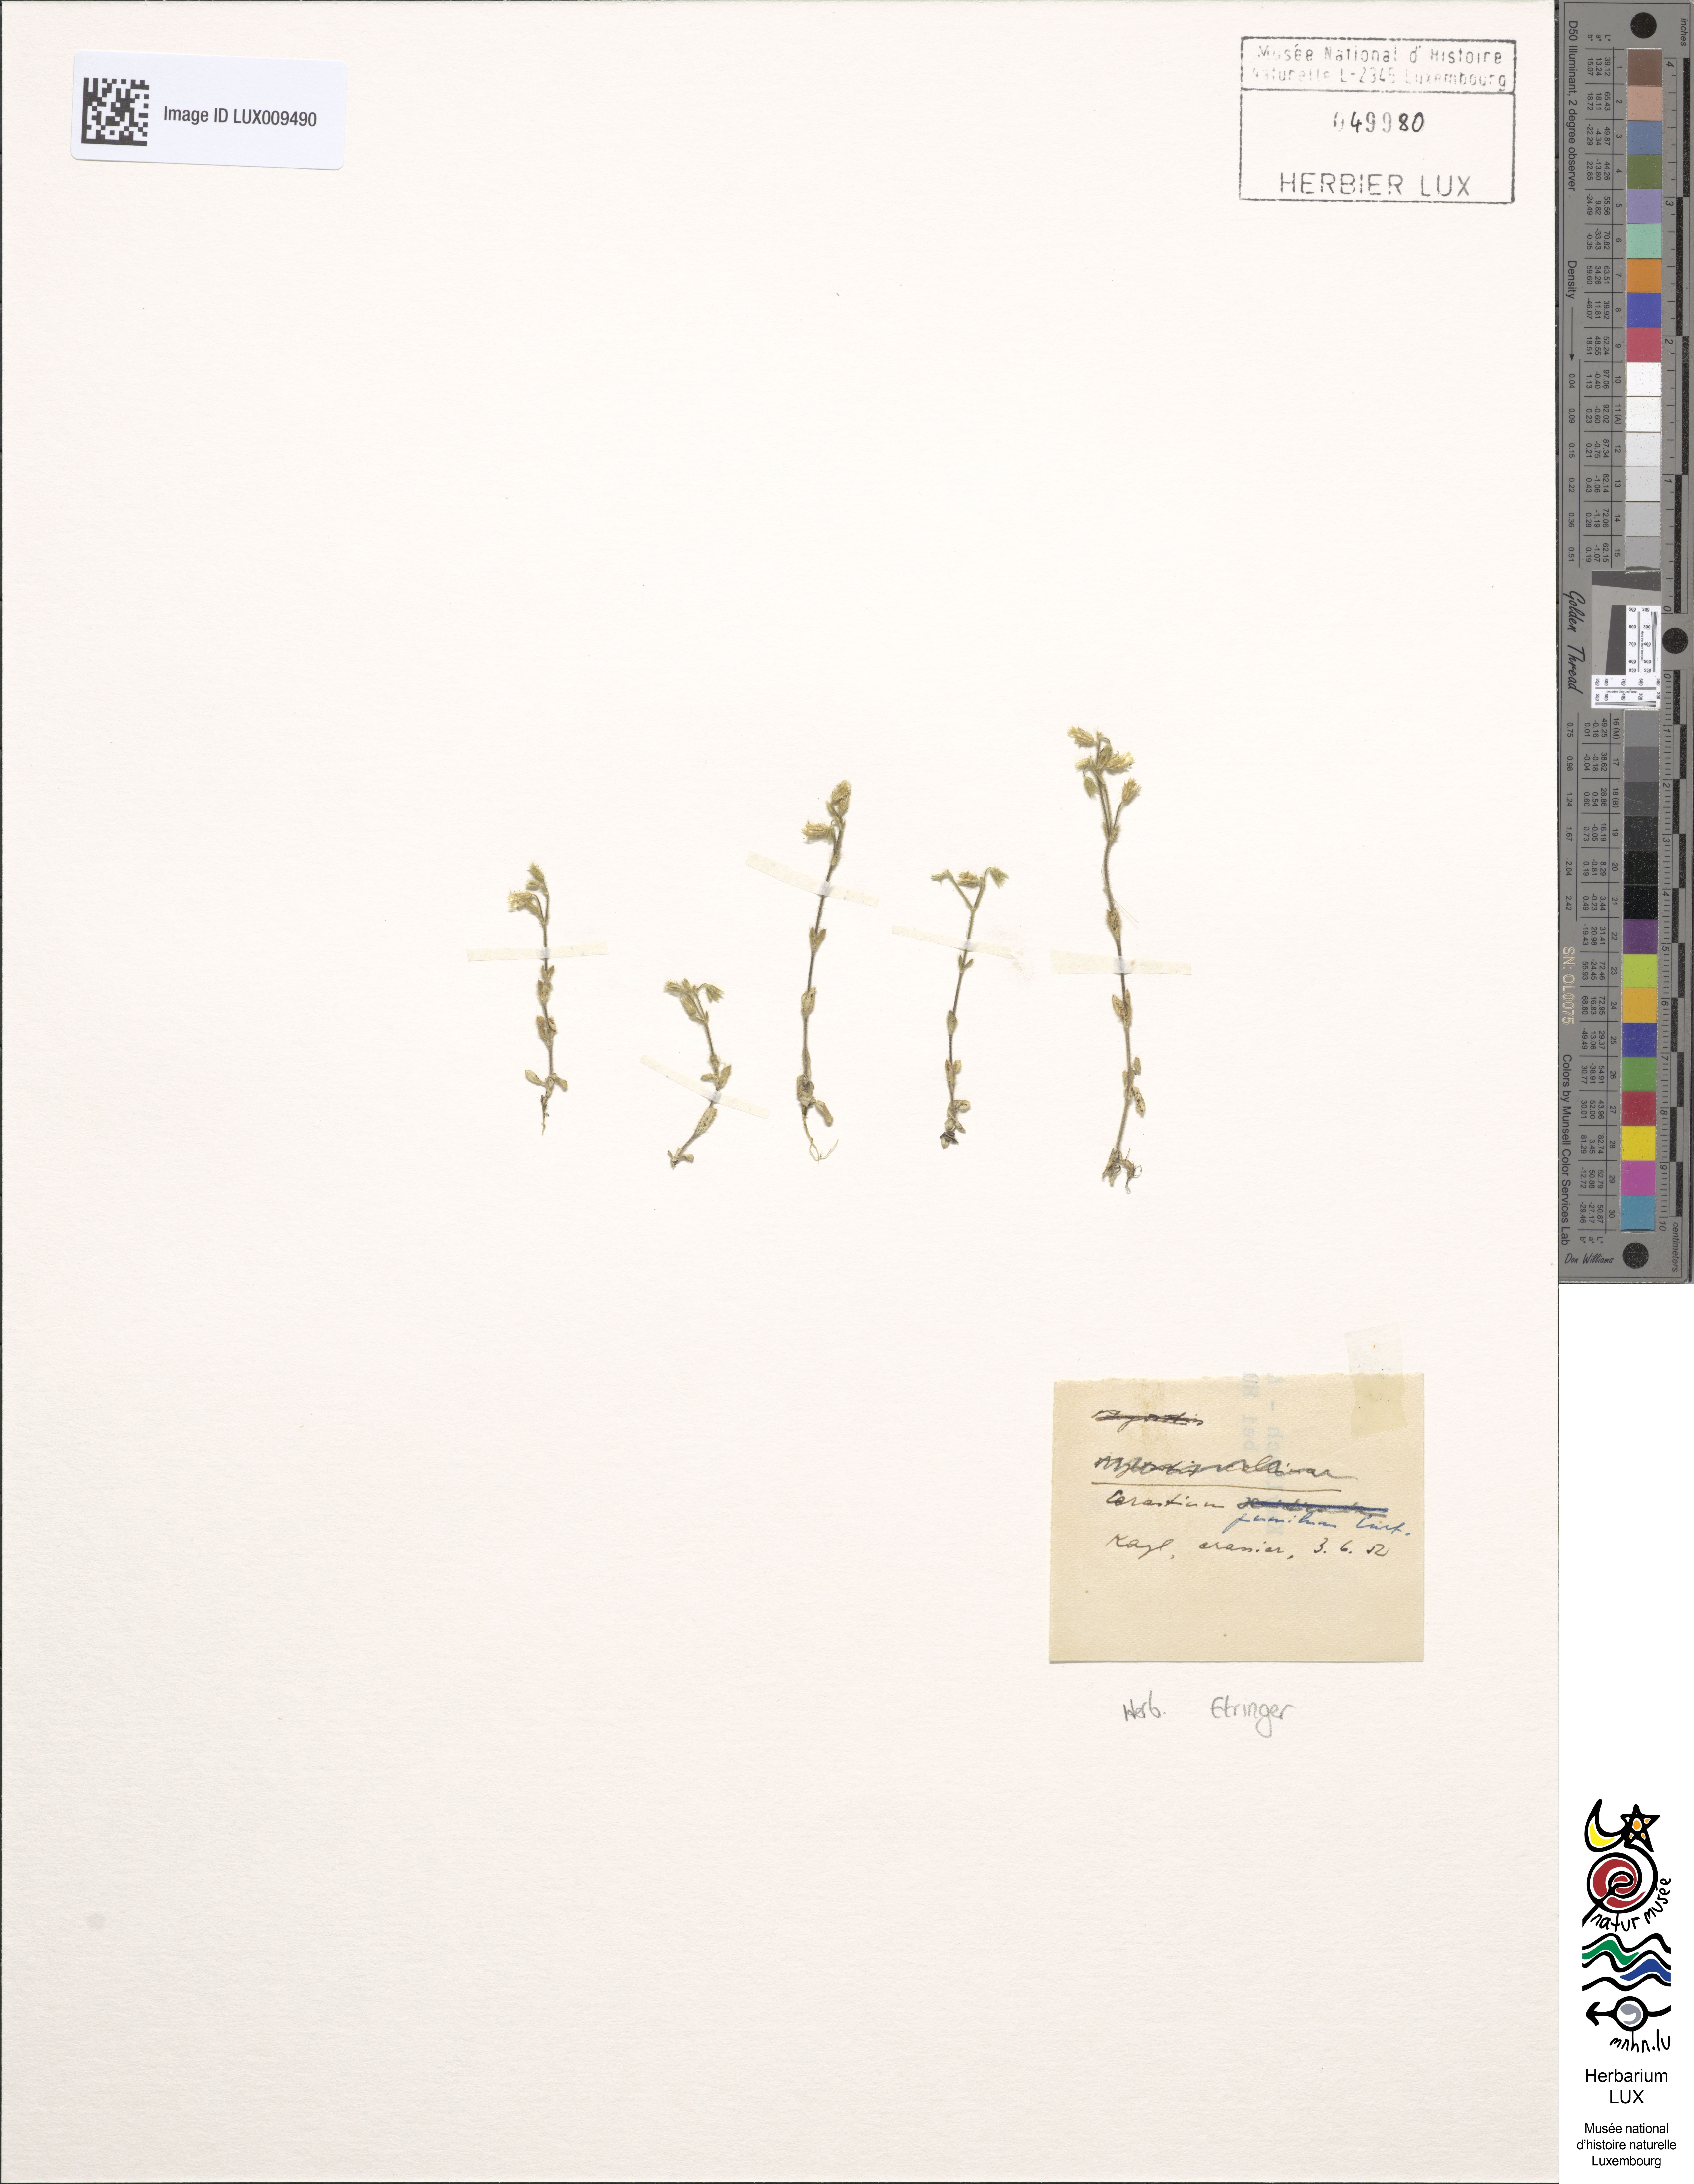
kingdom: Plantae
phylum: Tracheophyta
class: Magnoliopsida
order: Caryophyllales
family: Caryophyllaceae
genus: Cerastium
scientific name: Cerastium pumilum
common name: Dwarf mouse-ear
